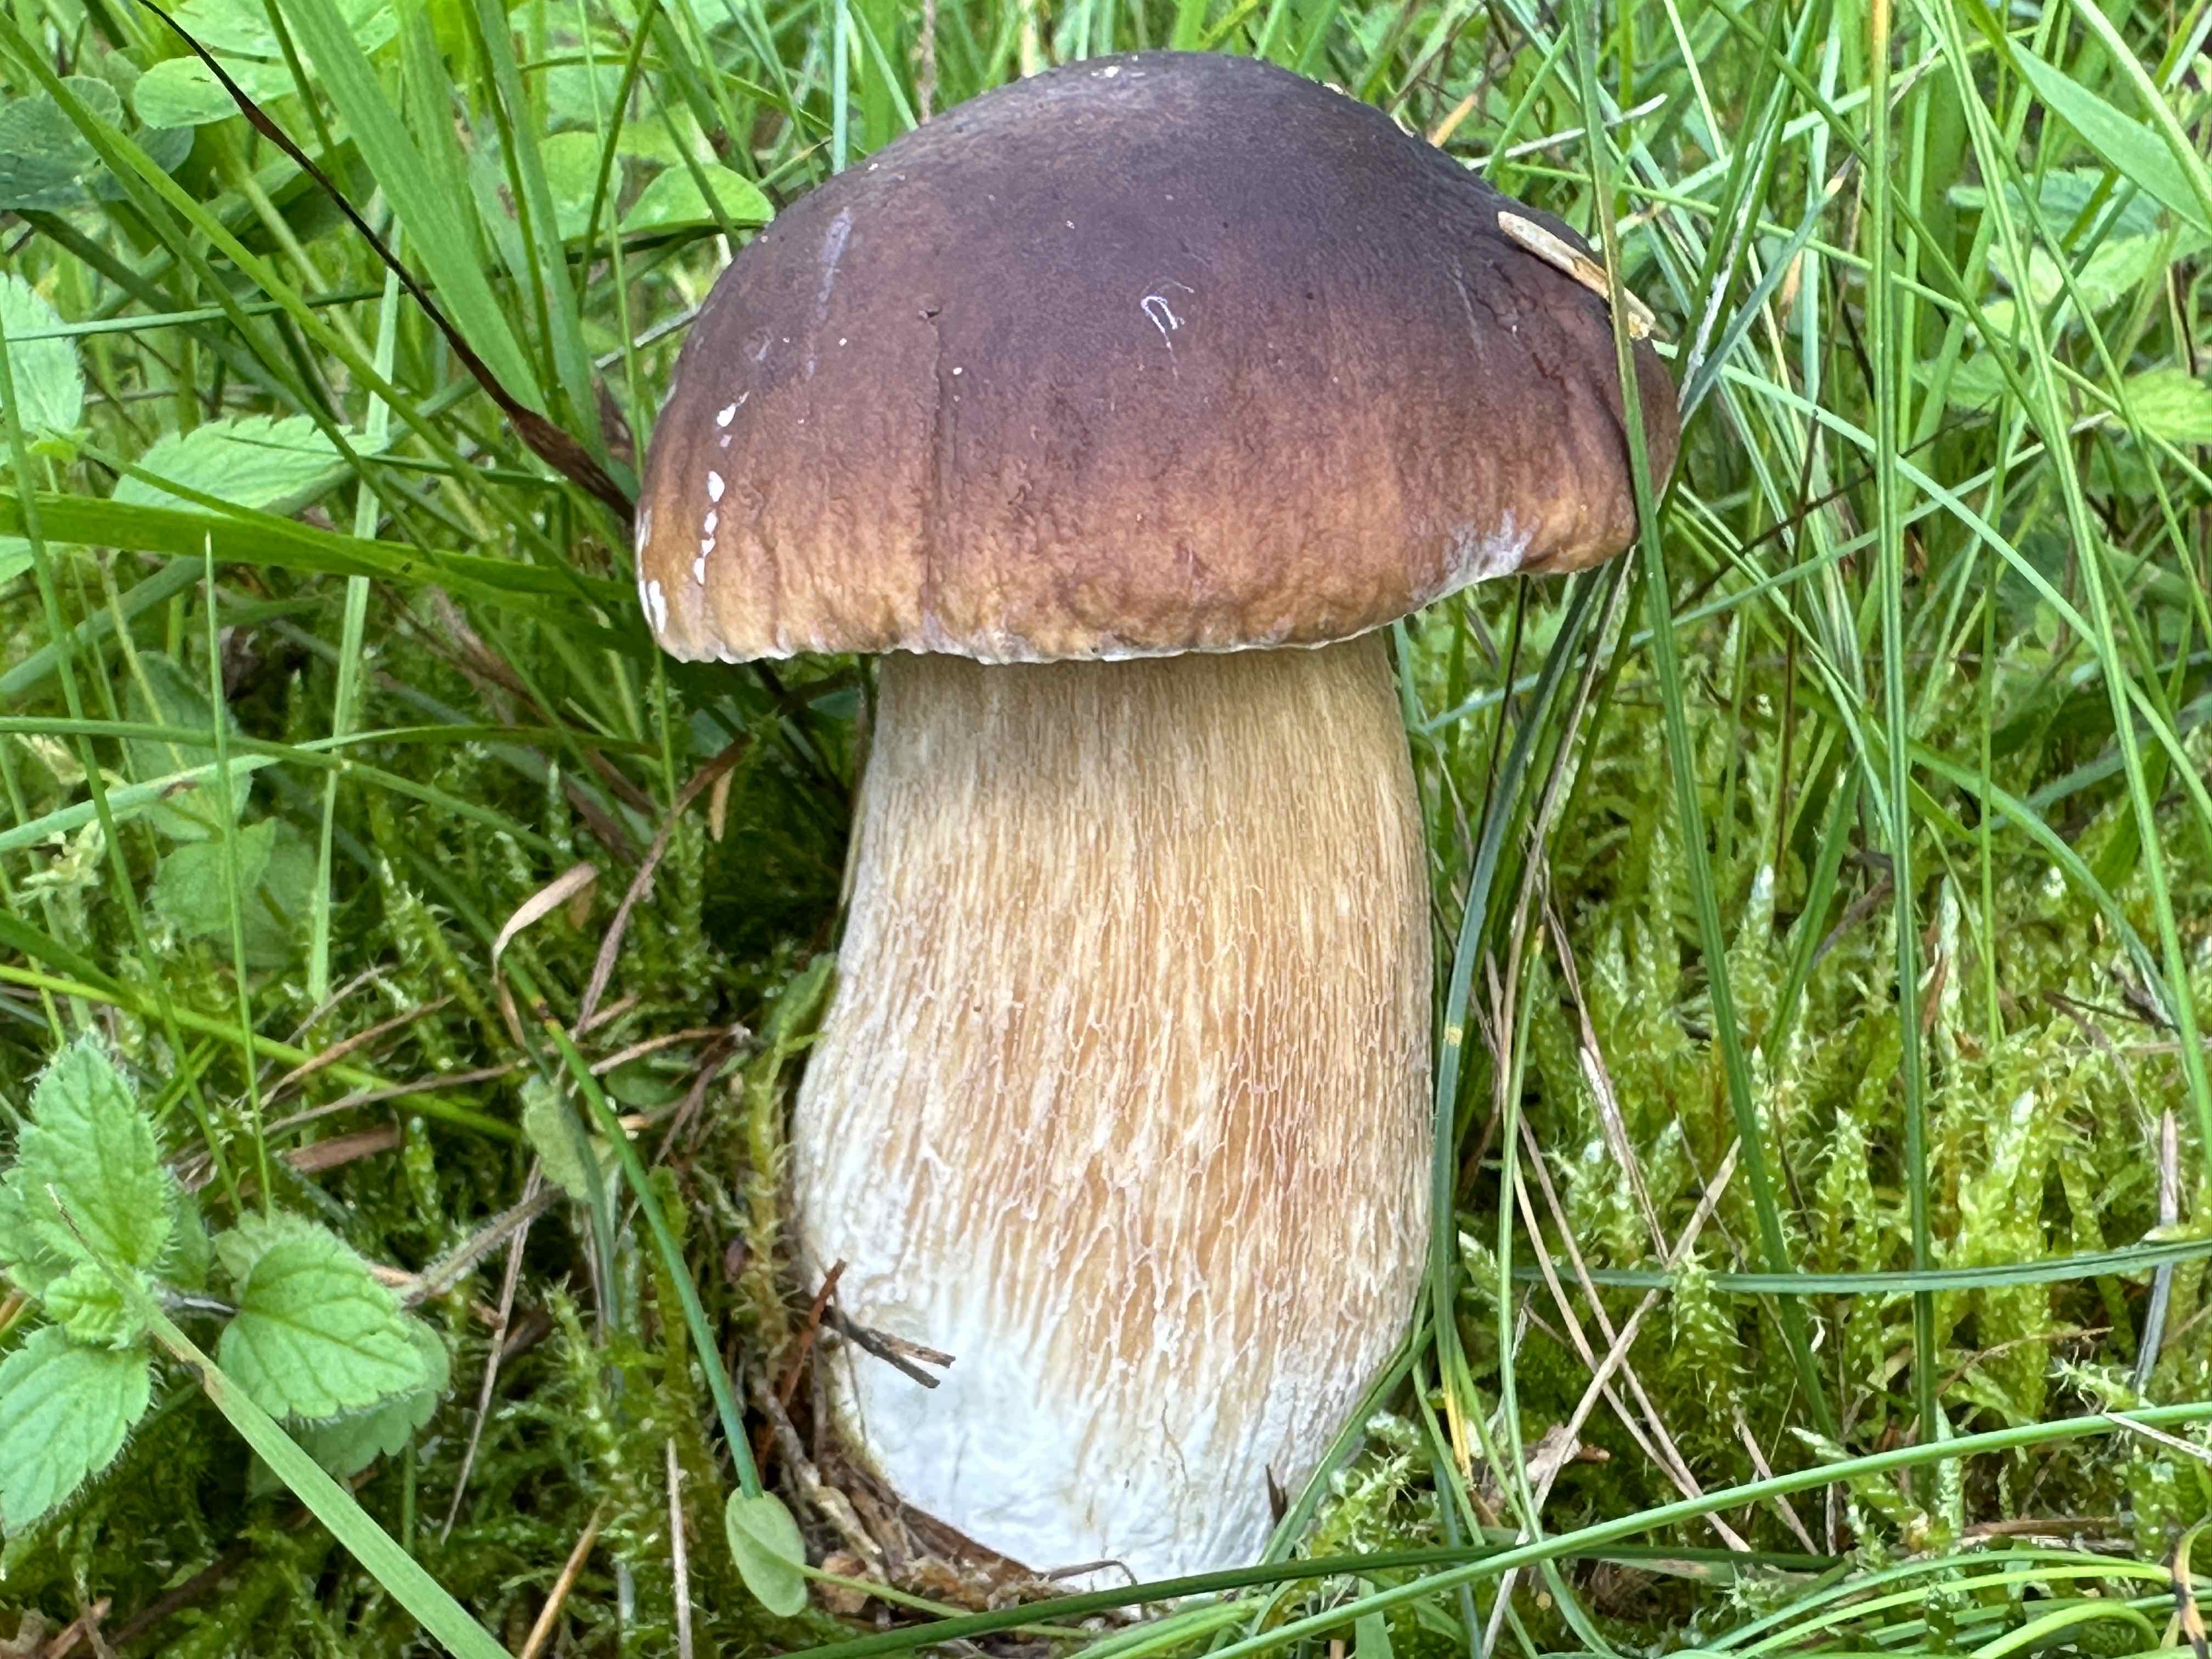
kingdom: Fungi
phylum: Basidiomycota
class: Agaricomycetes
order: Boletales
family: Boletaceae
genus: Boletus
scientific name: Boletus edulis
